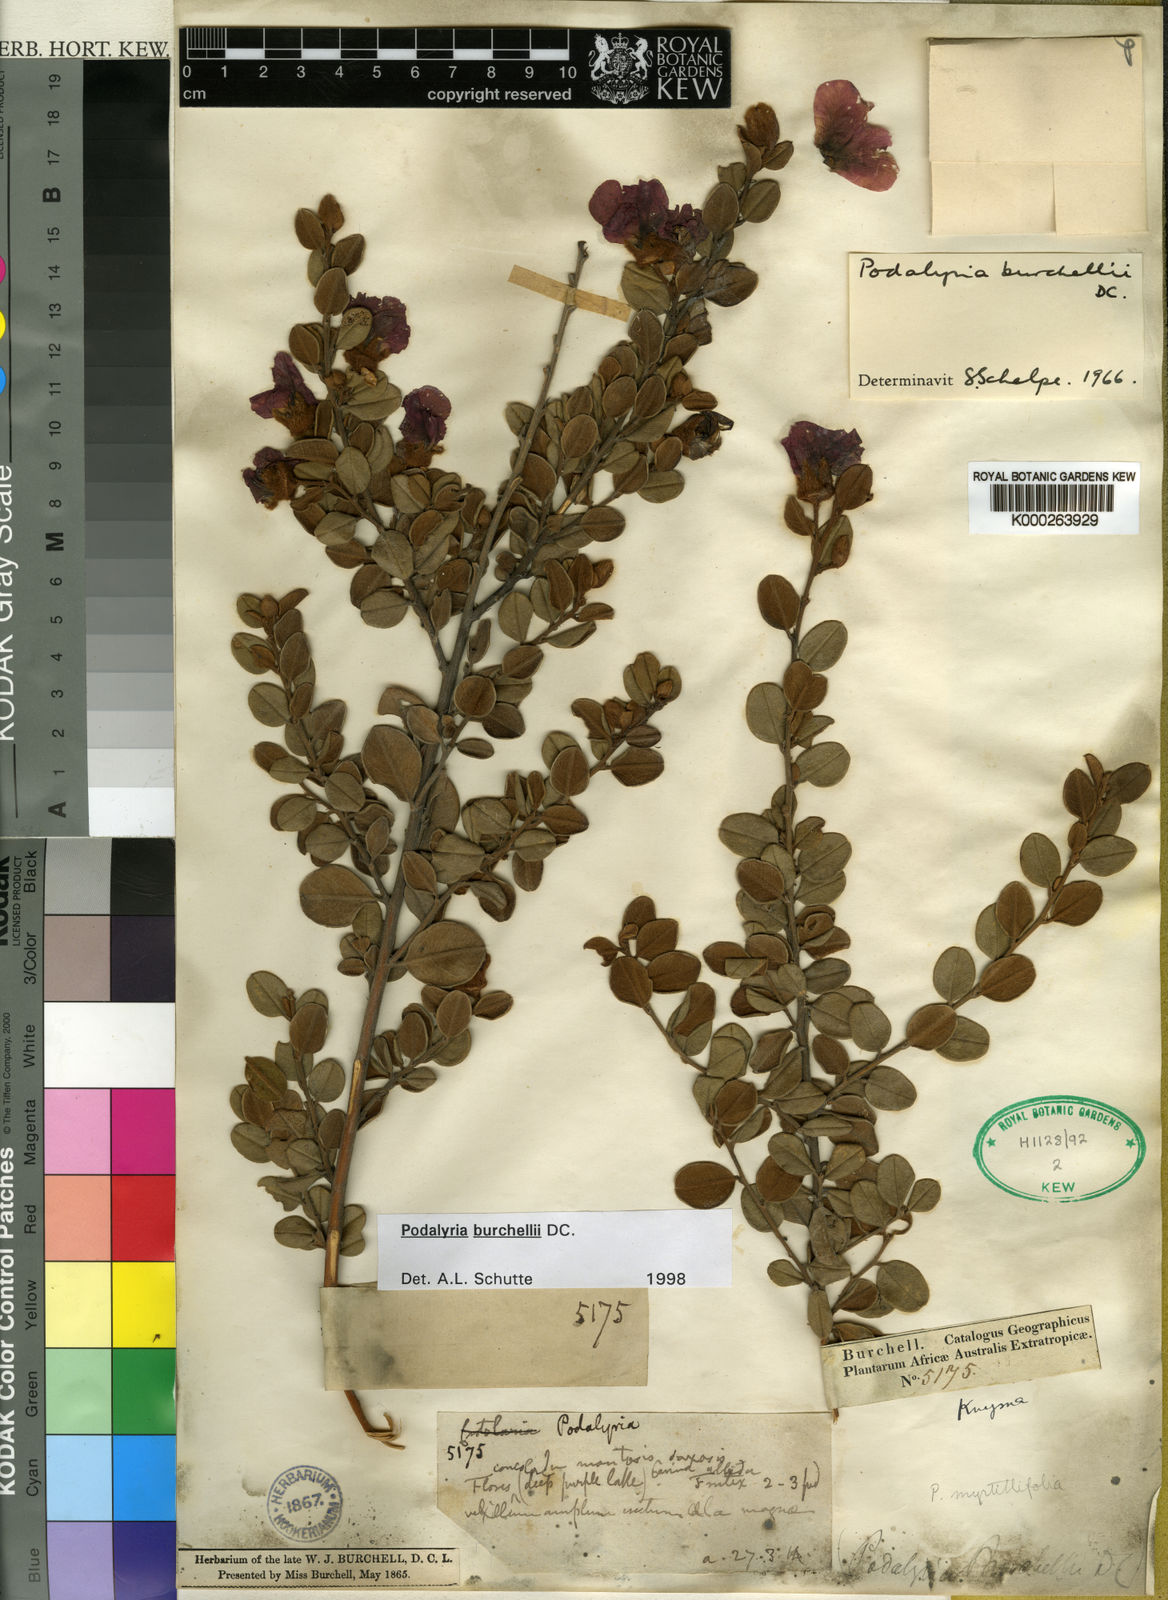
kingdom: Plantae
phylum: Tracheophyta
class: Magnoliopsida
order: Fabales
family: Fabaceae
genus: Podalyria
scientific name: Podalyria
